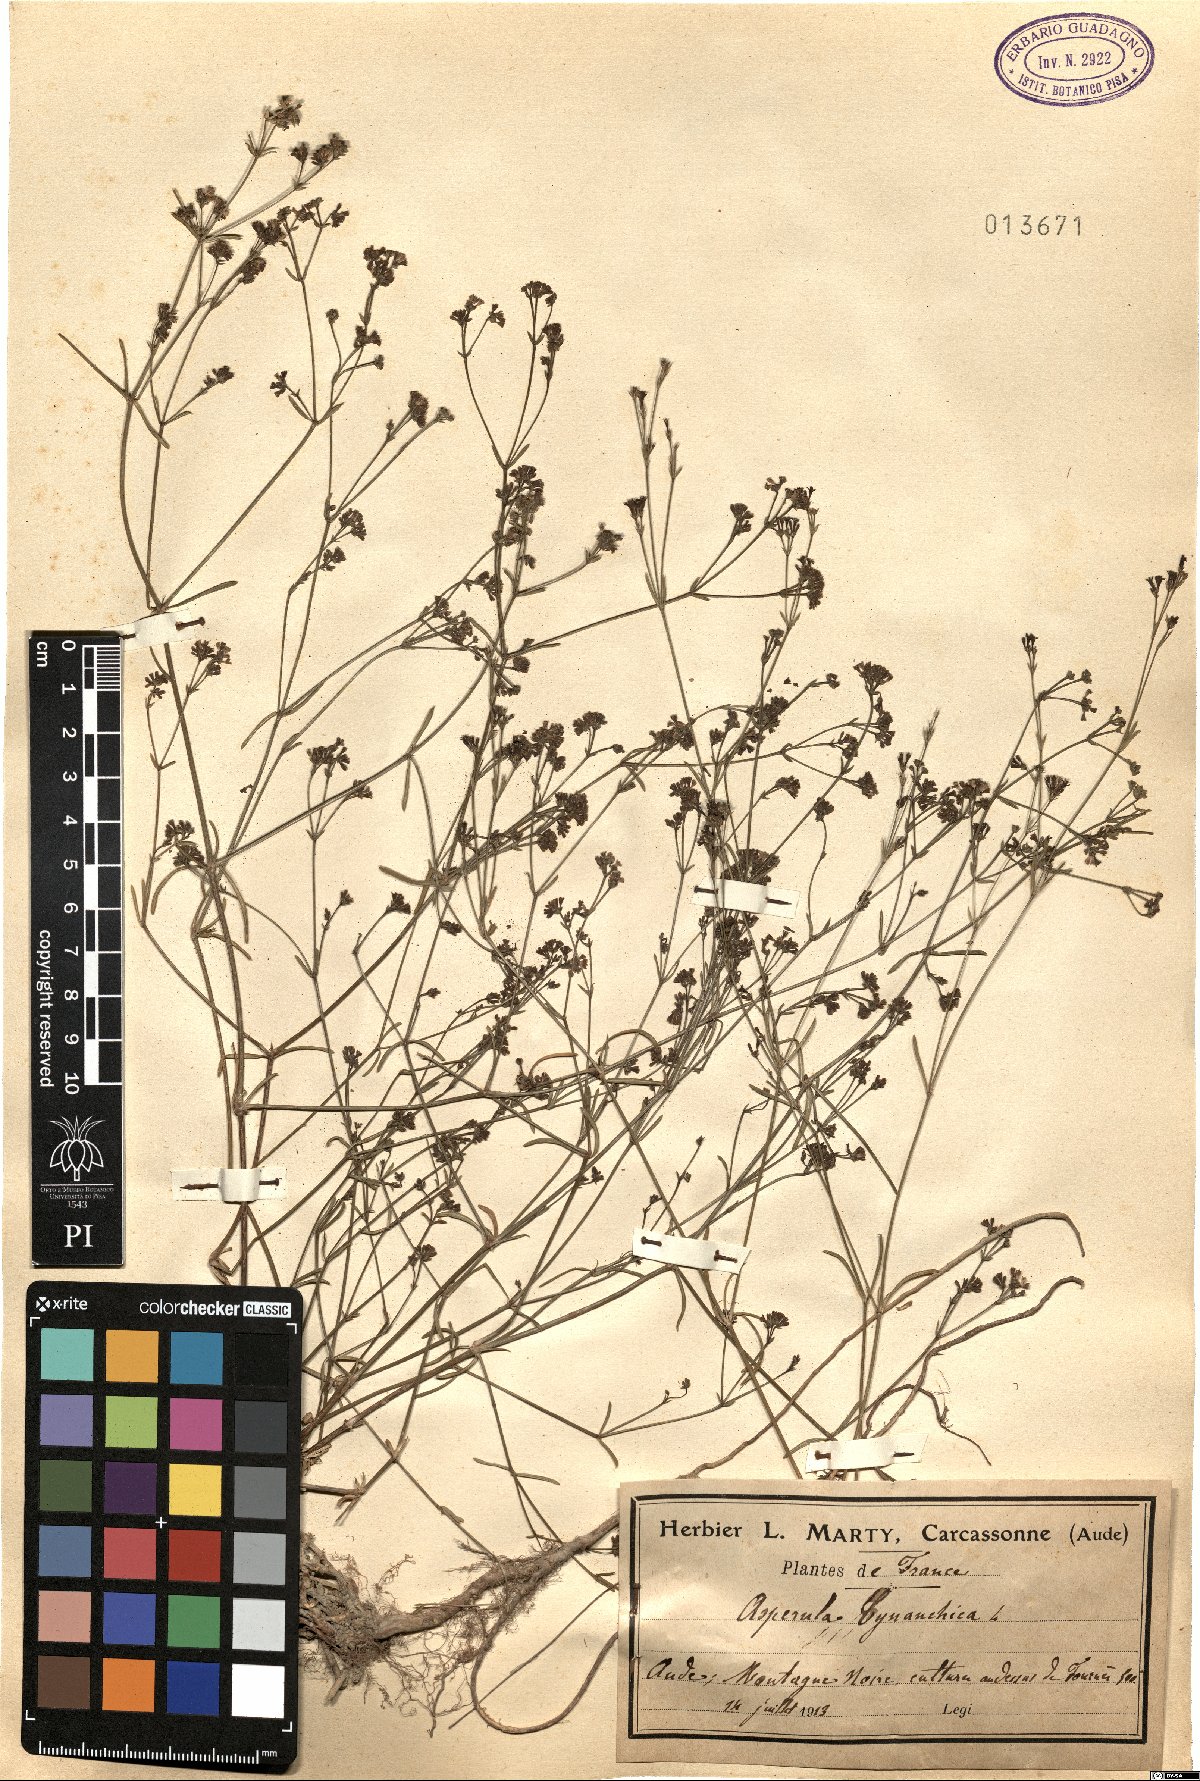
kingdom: Plantae
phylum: Tracheophyta
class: Magnoliopsida
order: Gentianales
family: Rubiaceae
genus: Cynanchica
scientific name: Cynanchica pyrenaica
